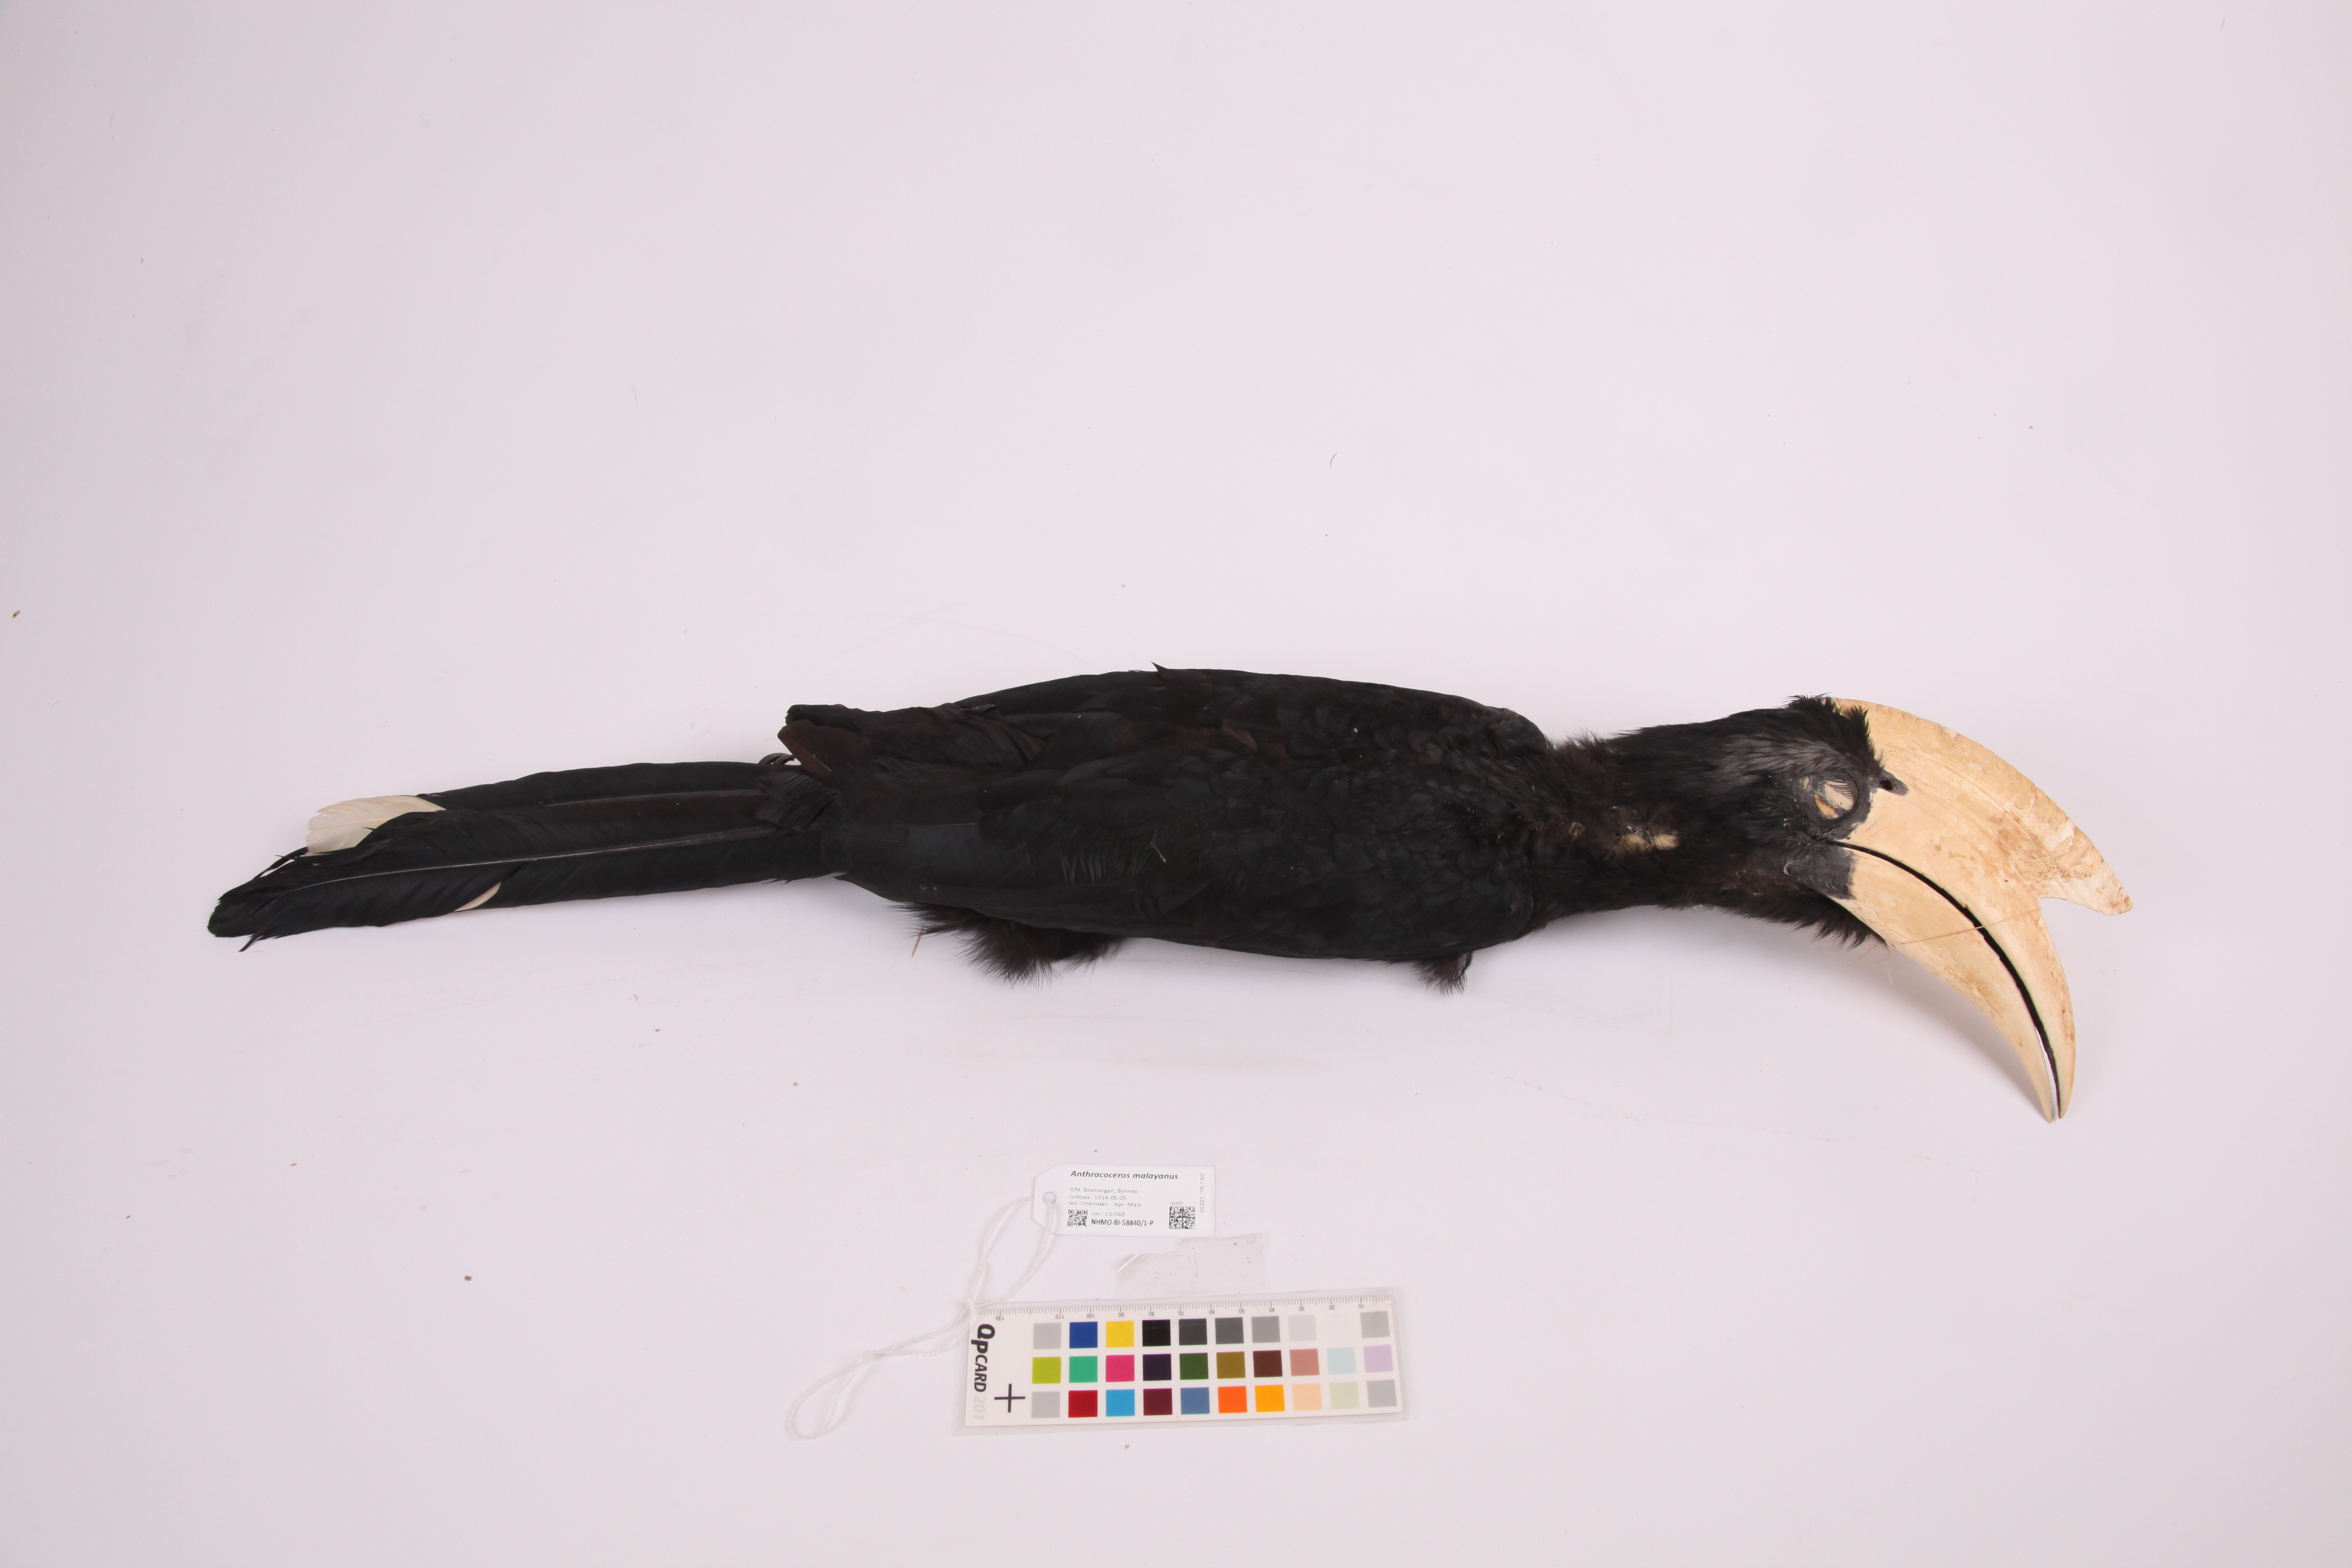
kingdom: Animalia
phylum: Chordata
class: Aves
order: Bucerotiformes
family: Bucerotidae
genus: Anthracoceros
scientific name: Anthracoceros malayanus
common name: Black hornbill
